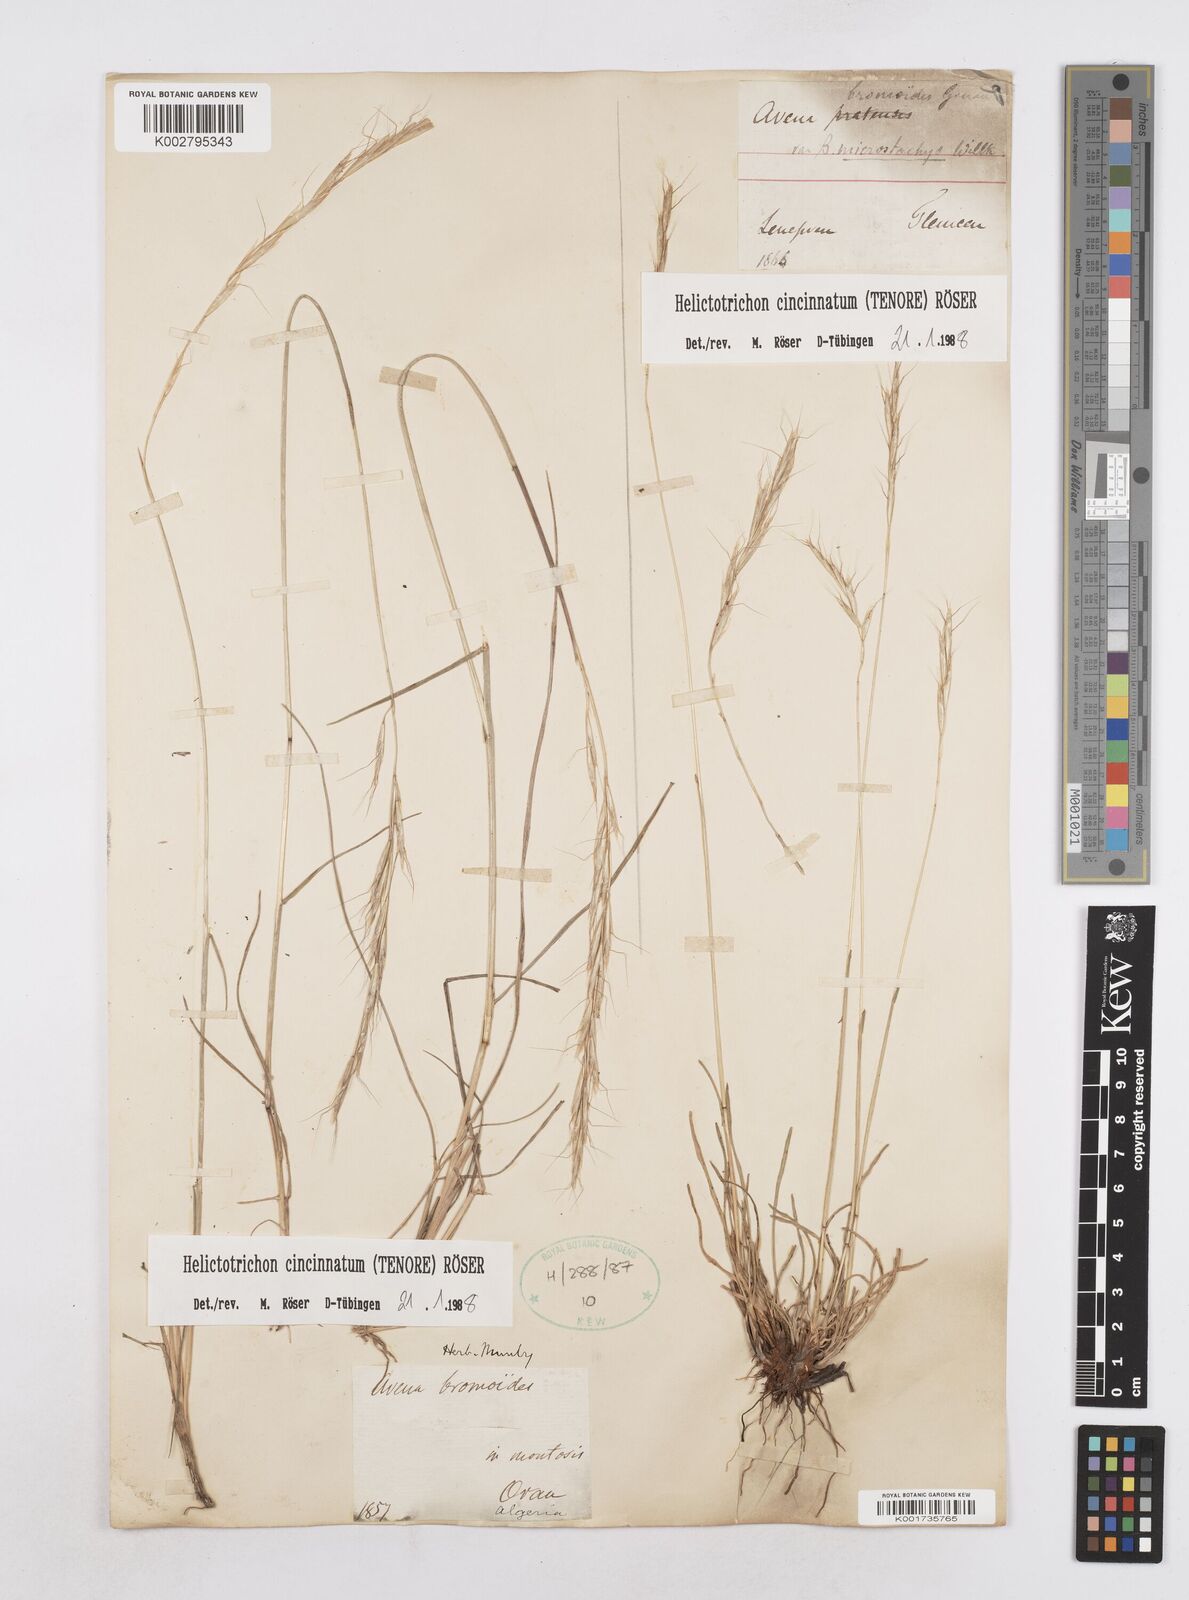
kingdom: Plantae
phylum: Tracheophyta
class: Liliopsida
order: Poales
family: Poaceae
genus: Helictochloa
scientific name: Helictochloa cincinnata
